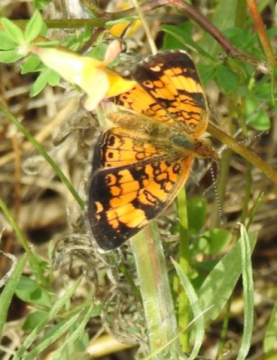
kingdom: Animalia
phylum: Arthropoda
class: Insecta
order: Lepidoptera
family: Nymphalidae
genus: Phyciodes
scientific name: Phyciodes tharos
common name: Pearl Crescent
